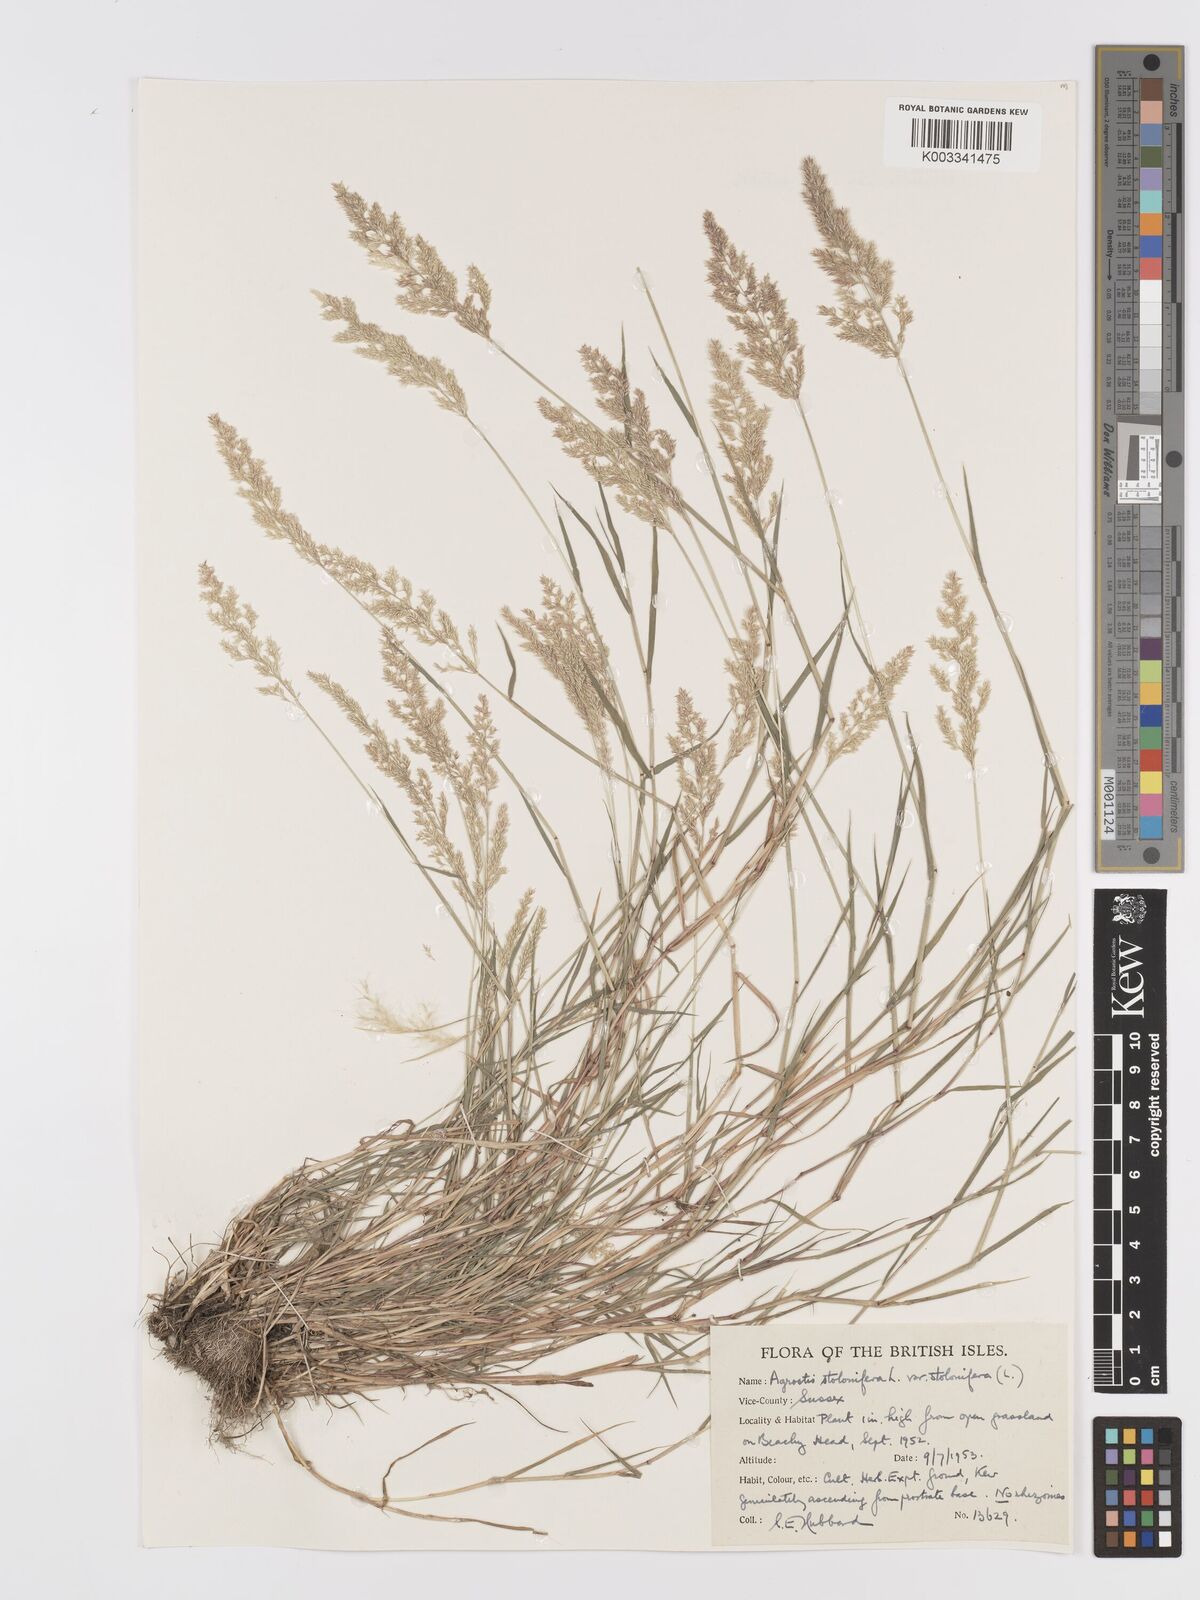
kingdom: Plantae
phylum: Tracheophyta
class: Liliopsida
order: Poales
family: Poaceae
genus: Agrostis
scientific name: Agrostis stolonifera
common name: Creeping bentgrass
